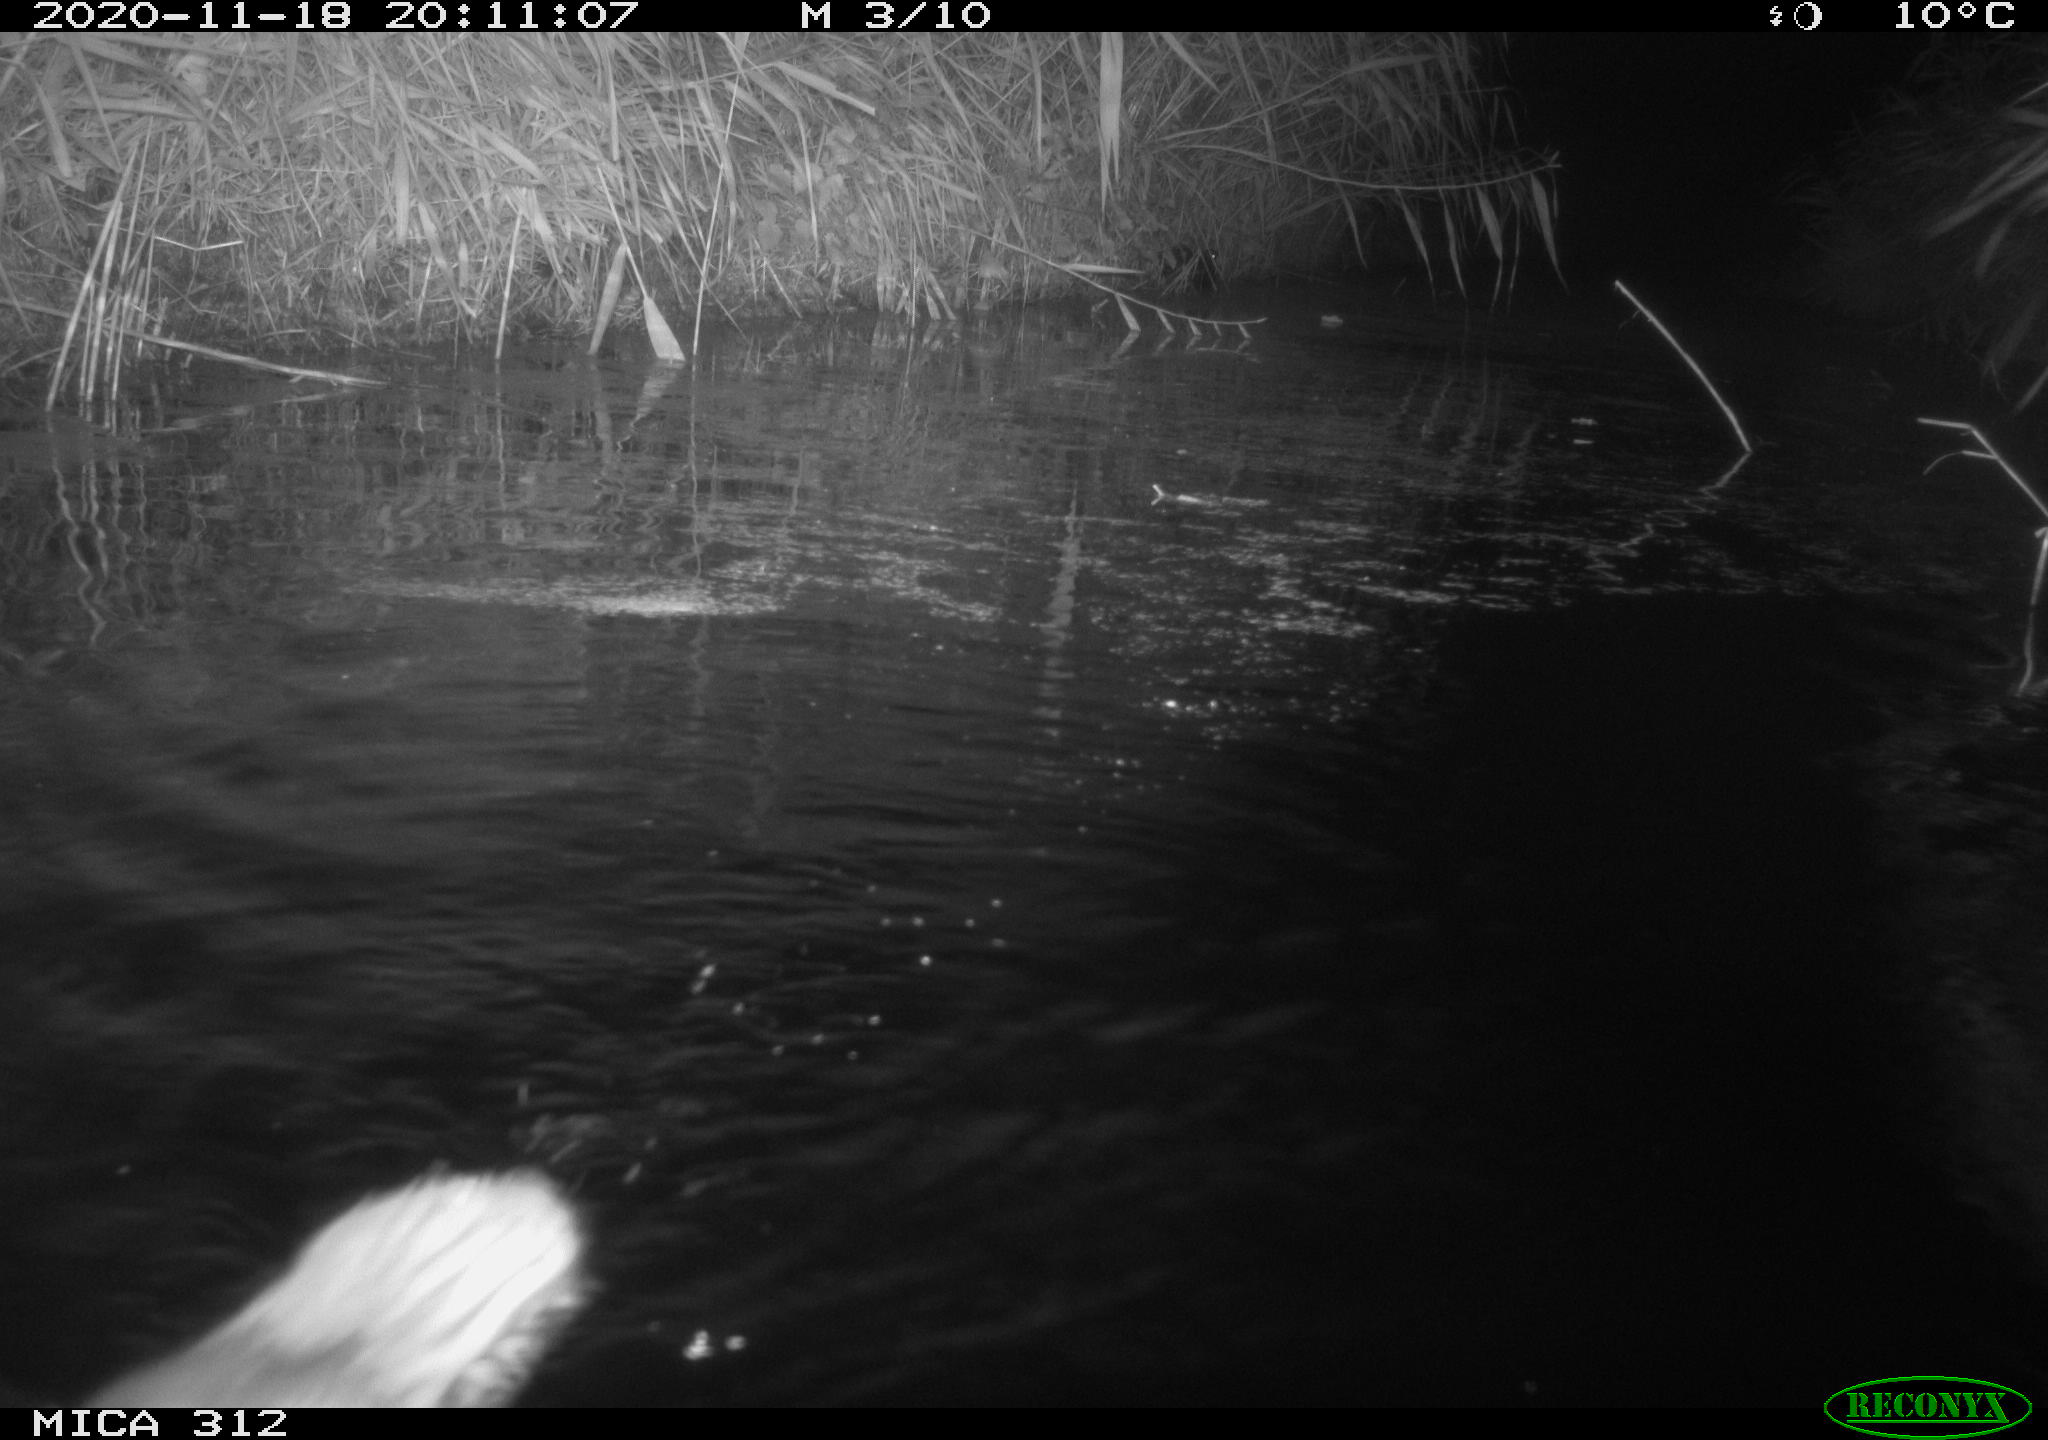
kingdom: Animalia
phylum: Chordata
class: Mammalia
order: Rodentia
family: Muridae
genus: Rattus
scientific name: Rattus norvegicus
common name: Brown rat
